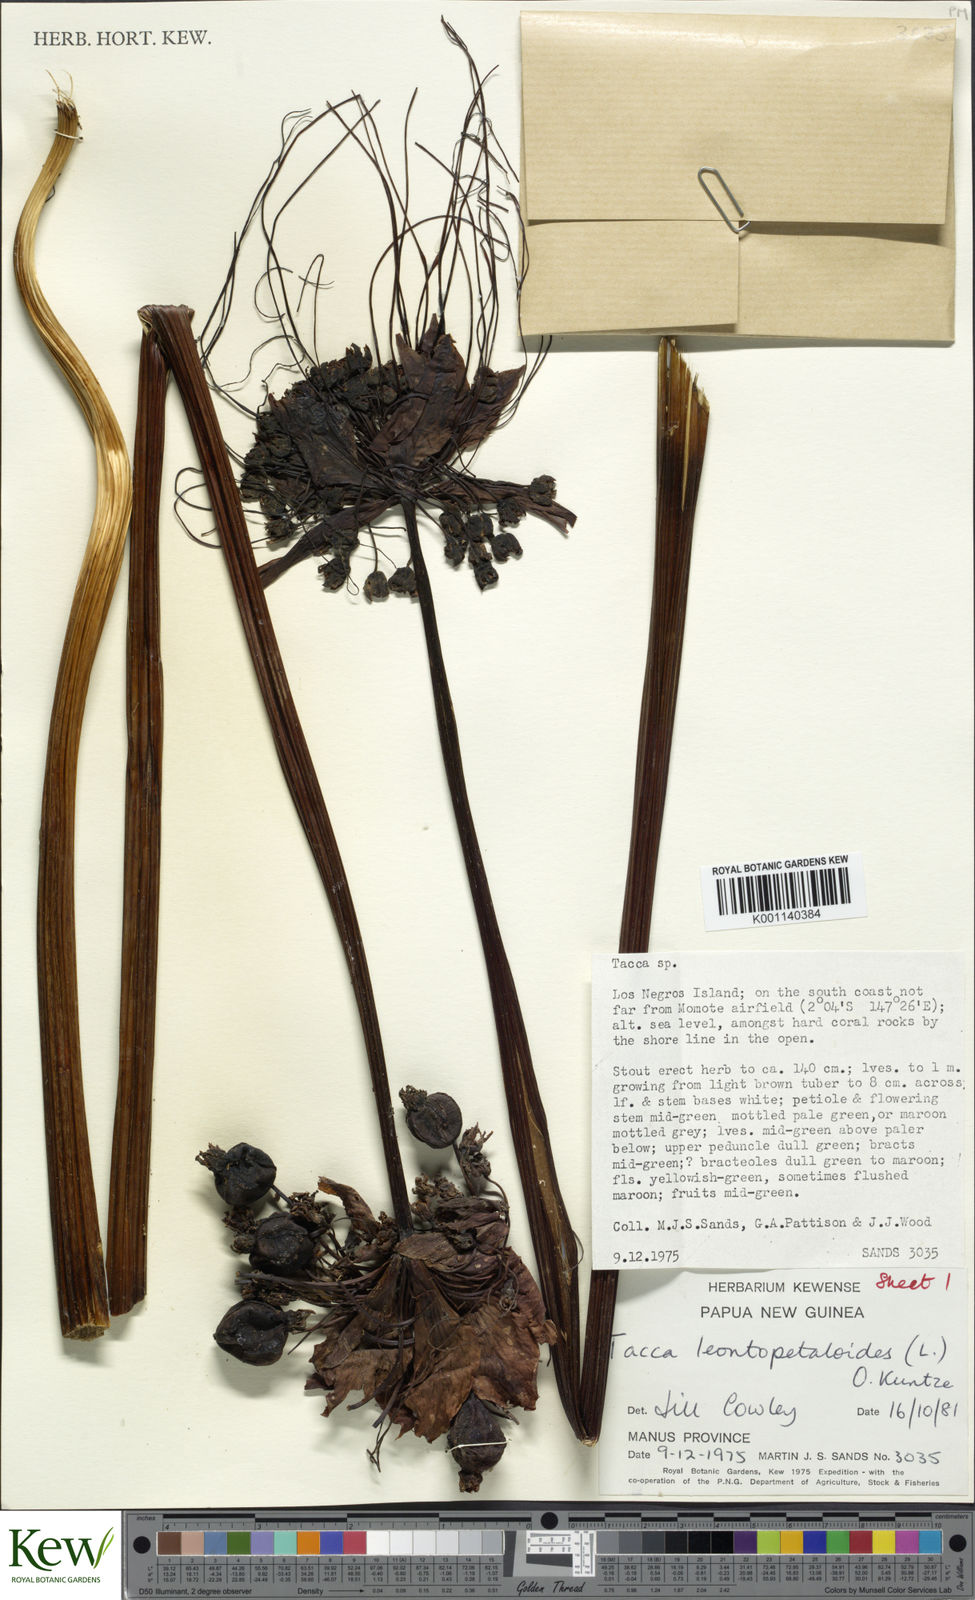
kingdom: Plantae
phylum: Tracheophyta
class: Liliopsida
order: Dioscoreales
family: Dioscoreaceae
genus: Tacca
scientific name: Tacca leontopetaloides
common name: Arrowroot
